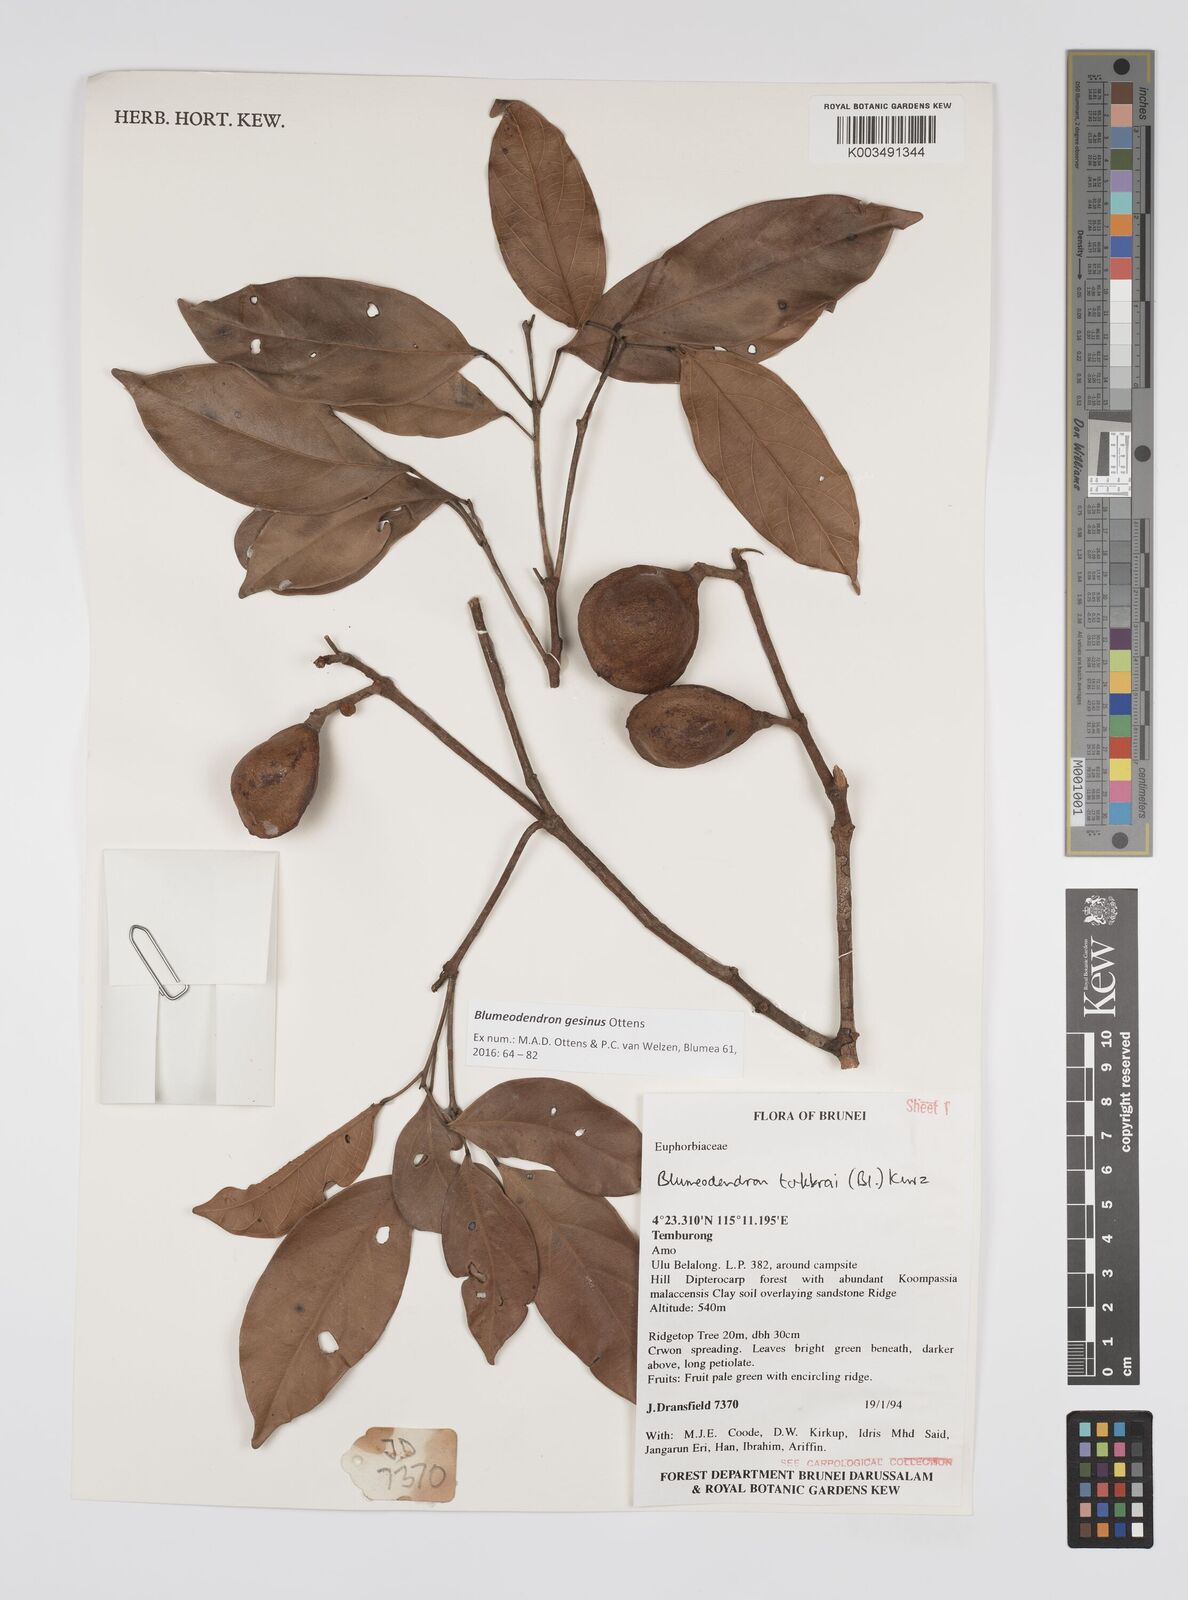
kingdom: Plantae
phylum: Tracheophyta
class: Magnoliopsida
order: Malpighiales
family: Euphorbiaceae
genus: Blumeodendron
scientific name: Blumeodendron gesinus
